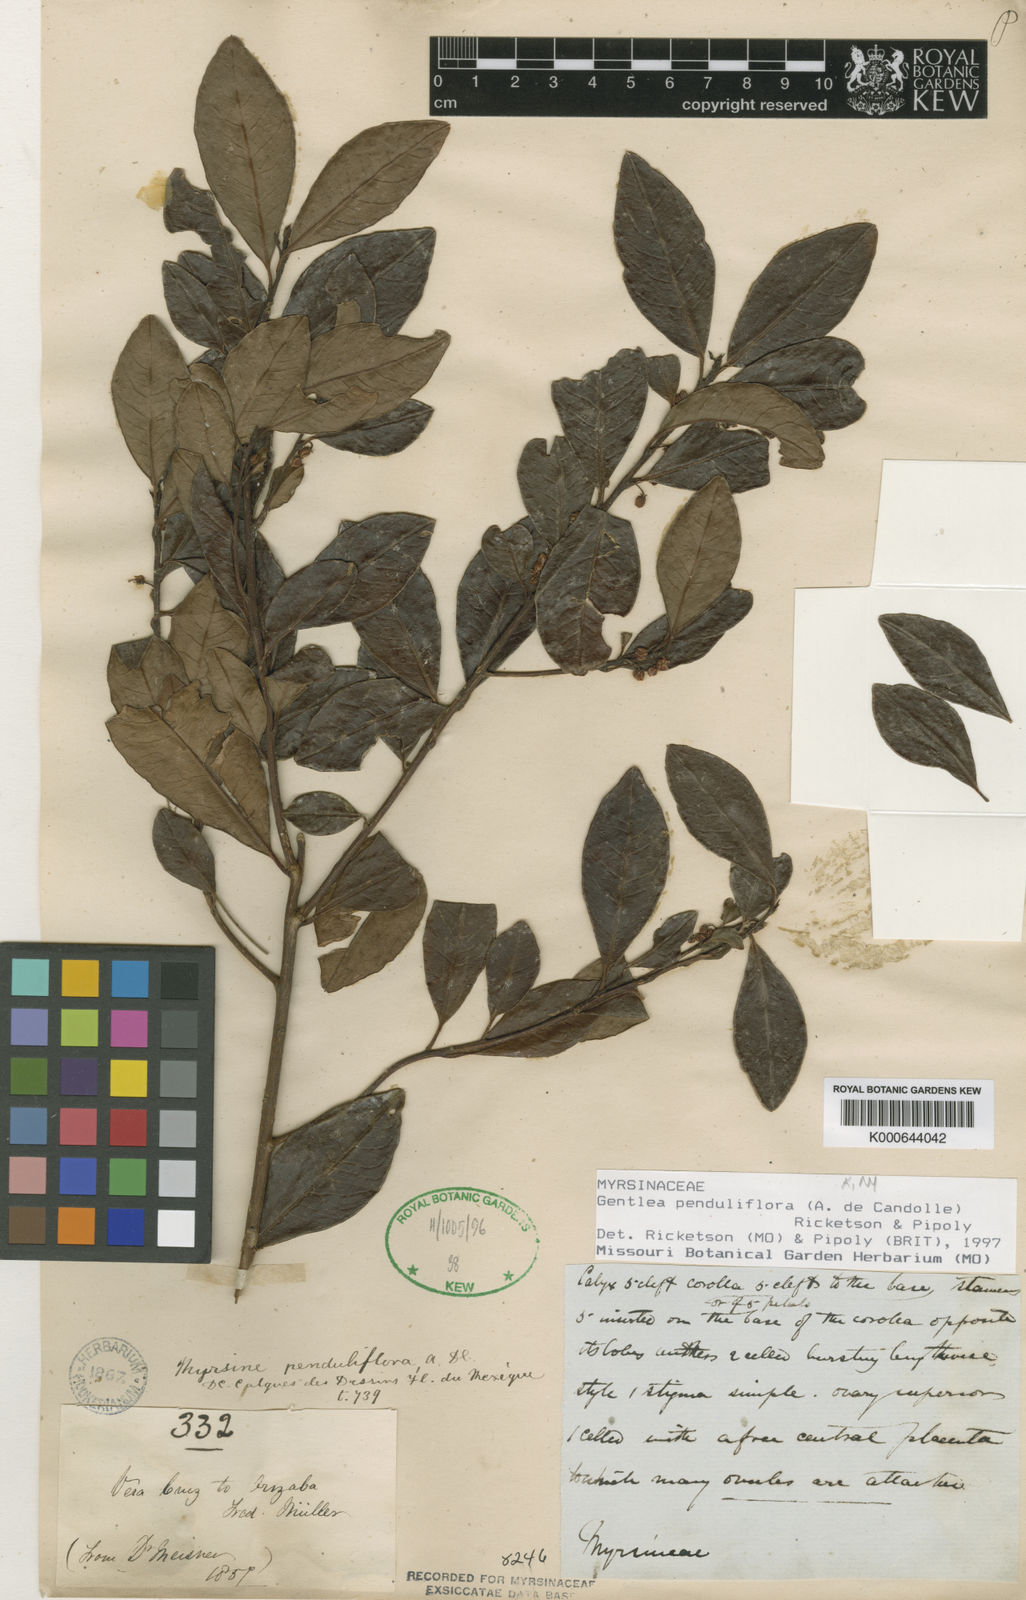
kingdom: Plantae
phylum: Tracheophyta
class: Magnoliopsida
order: Ericales
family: Primulaceae
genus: Gentlea
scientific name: Gentlea penduliflora
